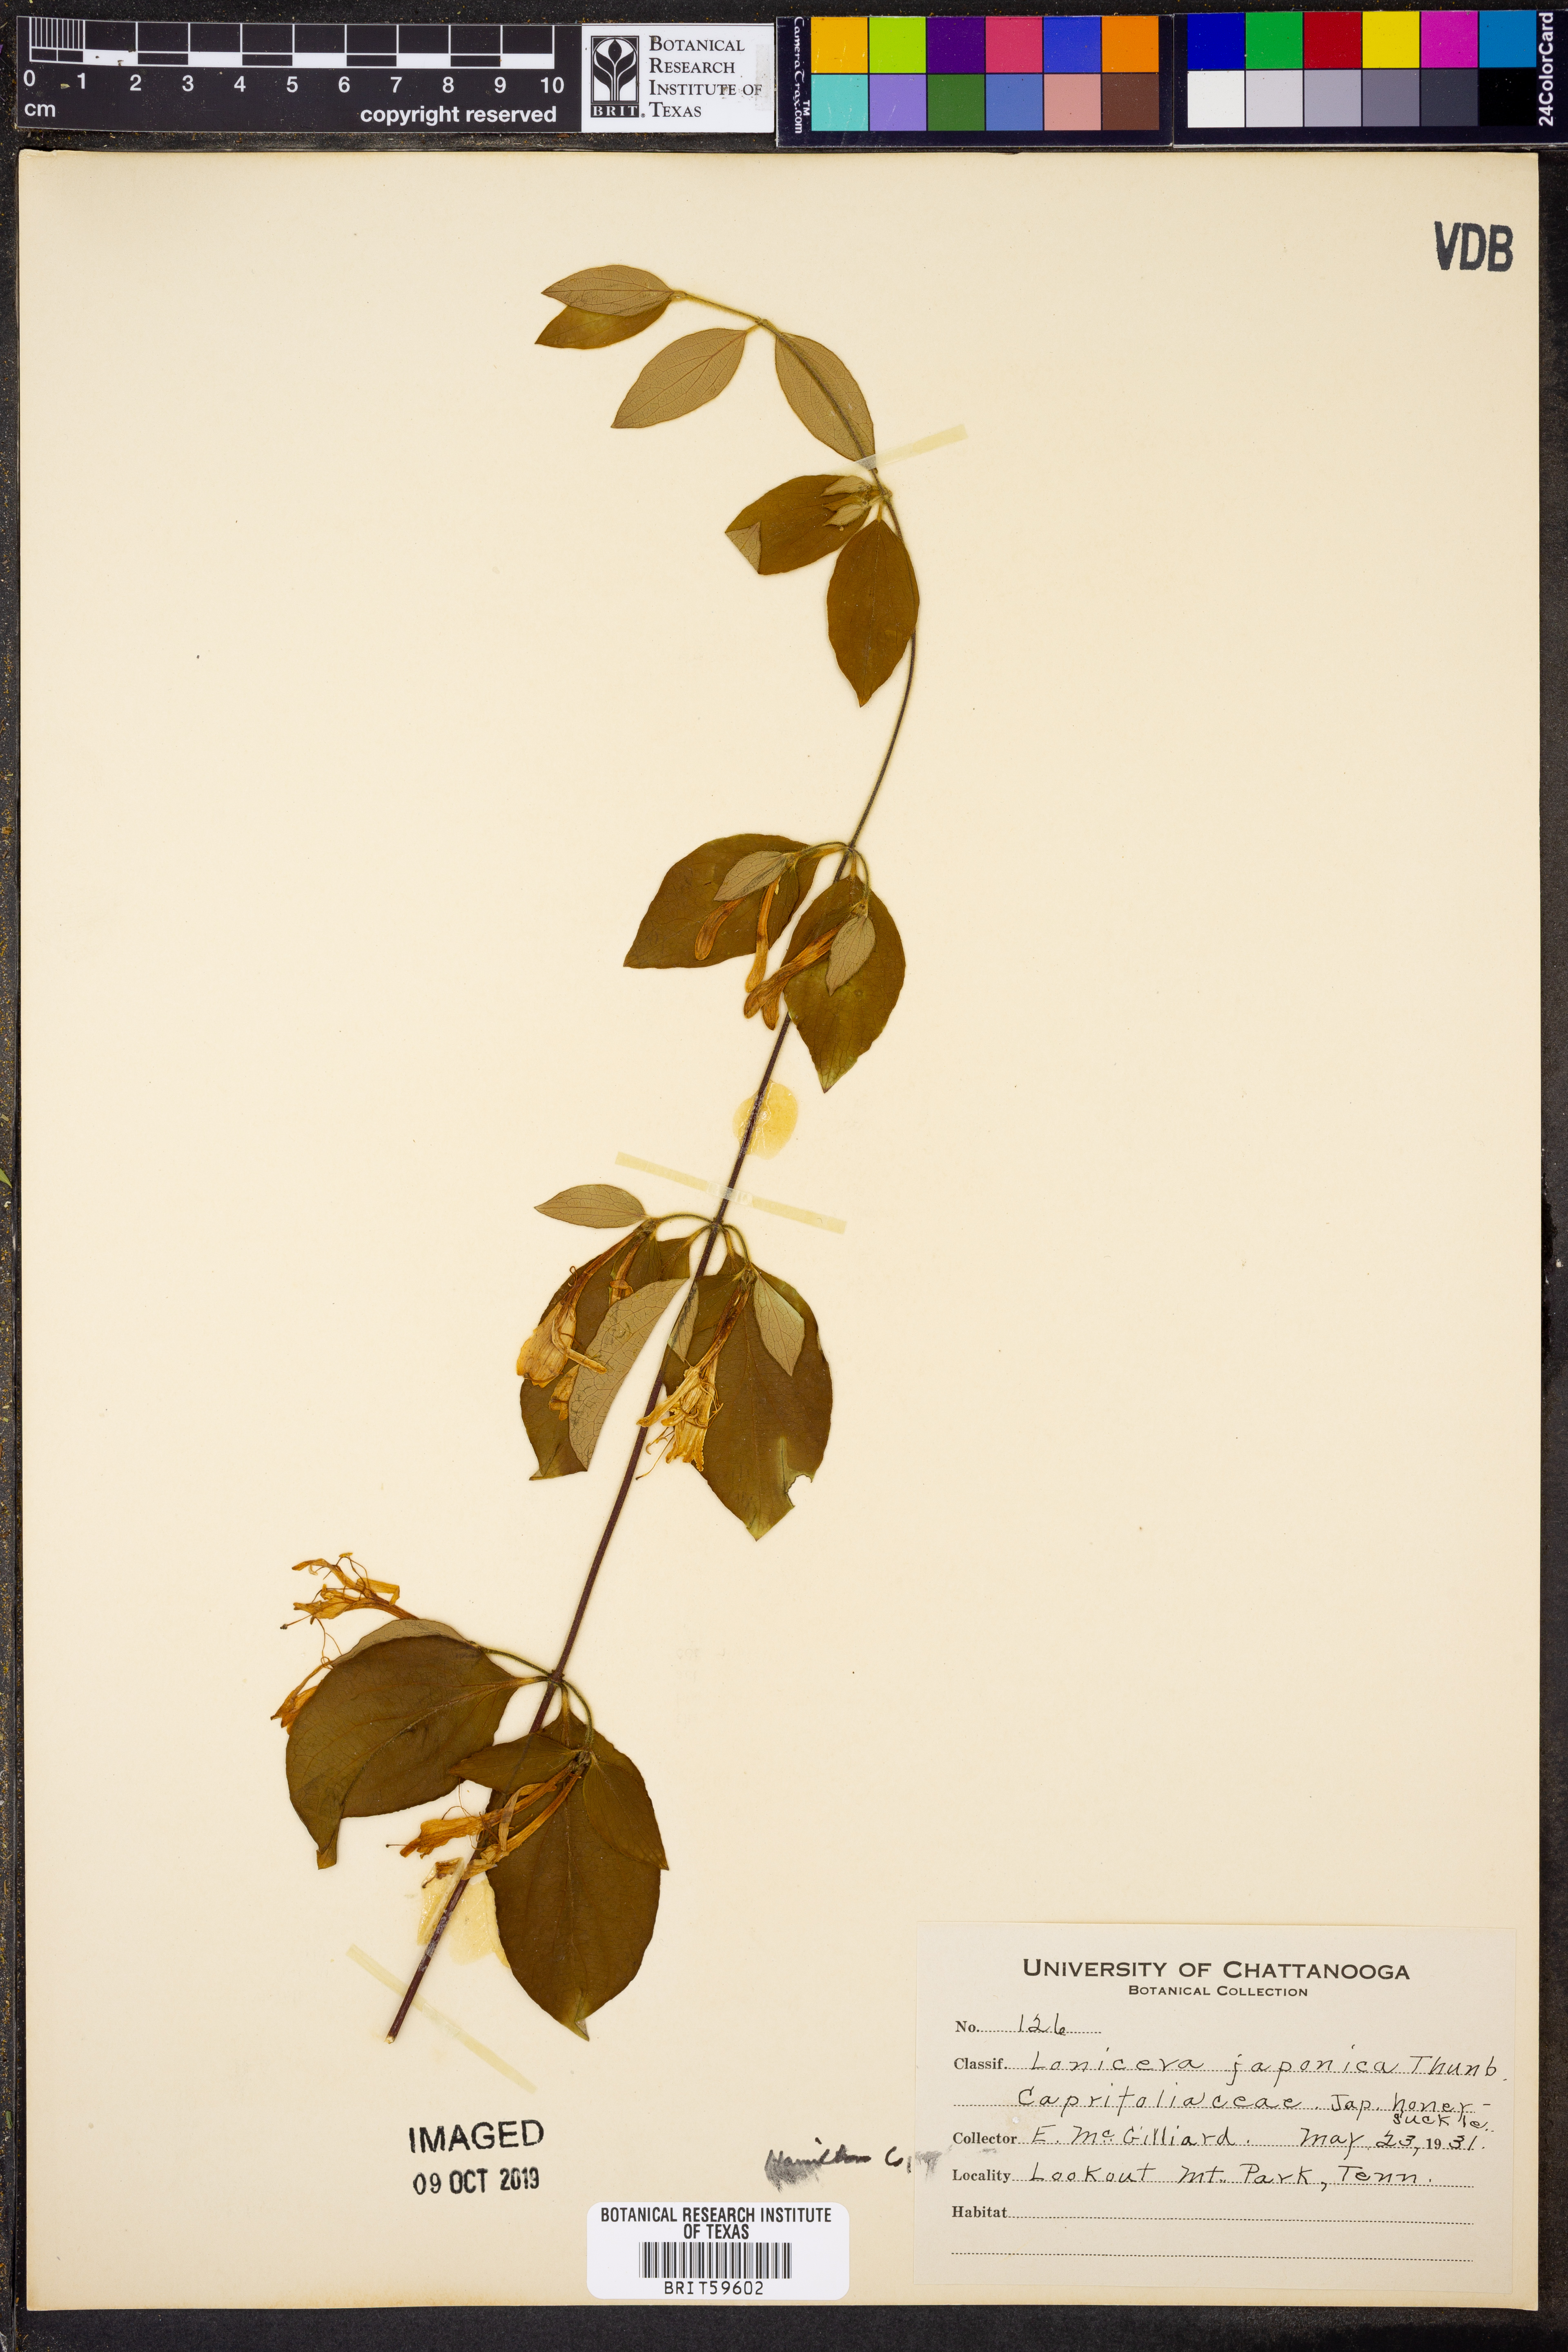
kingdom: Plantae
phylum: Tracheophyta
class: Magnoliopsida
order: Dipsacales
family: Caprifoliaceae
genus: Lonicera
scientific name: Lonicera japonica
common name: Japanese honeysuckle
